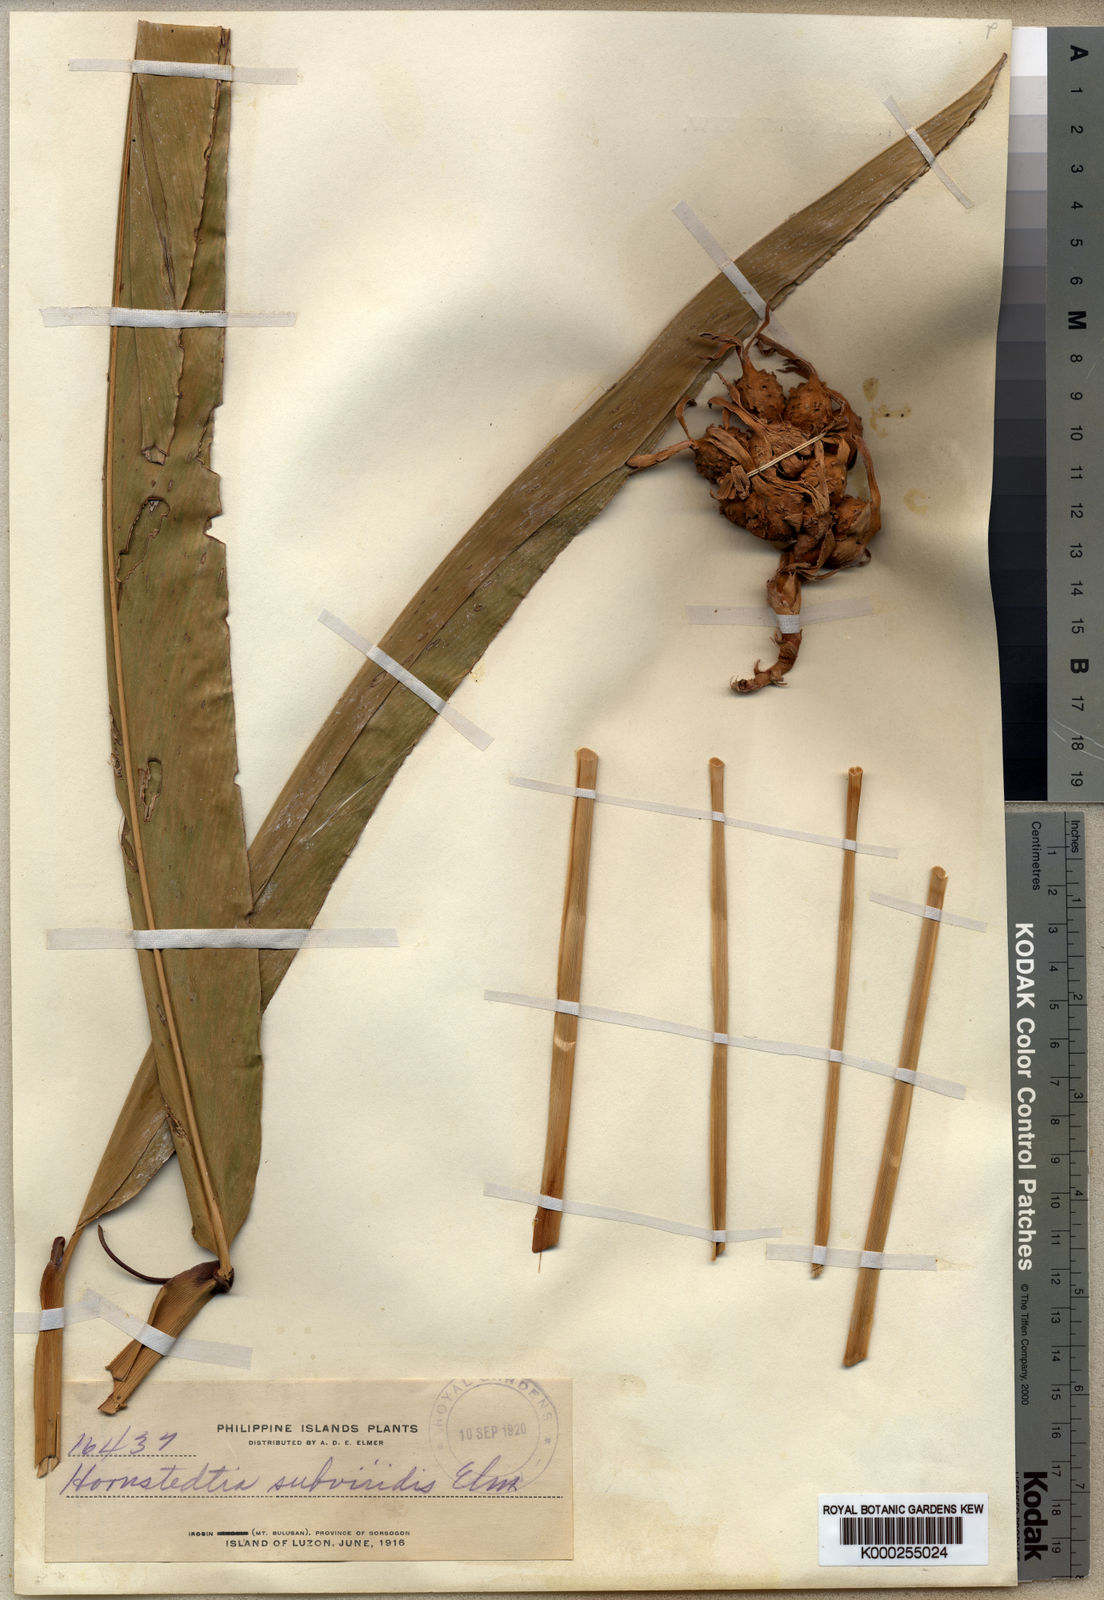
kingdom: Plantae
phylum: Tracheophyta
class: Liliopsida
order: Zingiberales
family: Zingiberaceae
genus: Etlingera
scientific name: Etlingera subviridis
